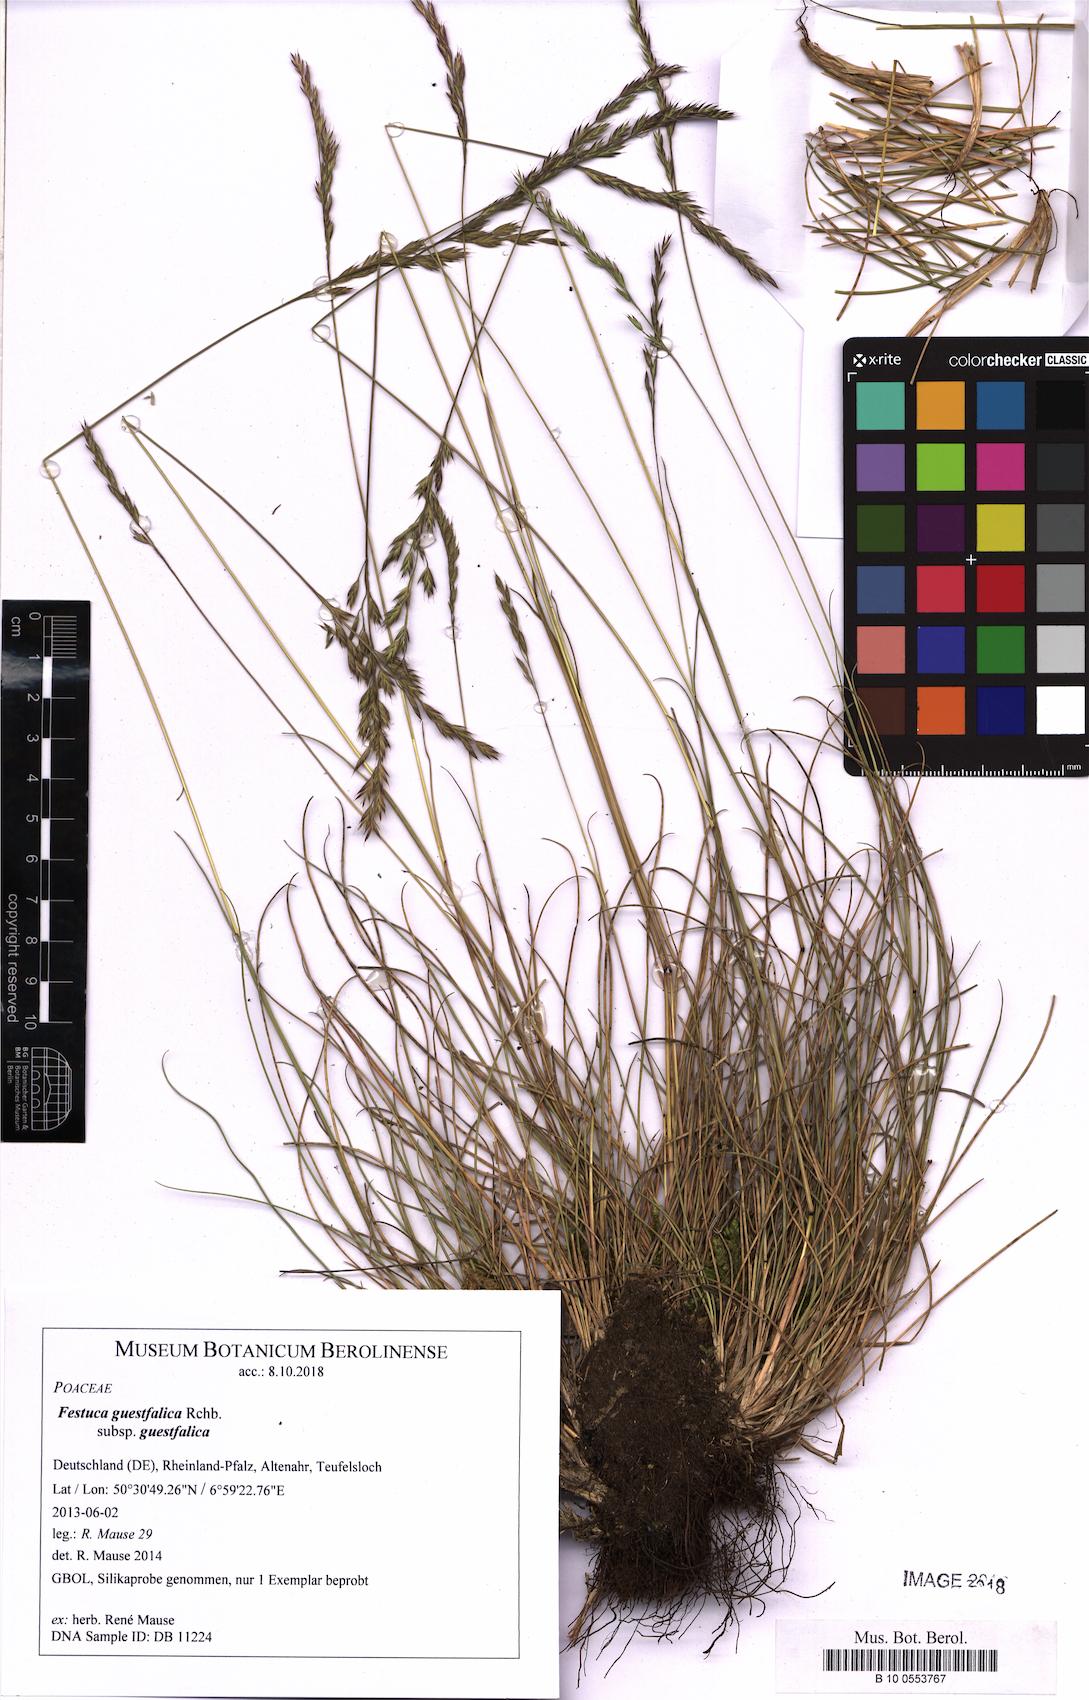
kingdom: Plantae
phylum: Tracheophyta
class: Liliopsida
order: Poales
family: Poaceae
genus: Festuca
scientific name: Festuca guestfalica
